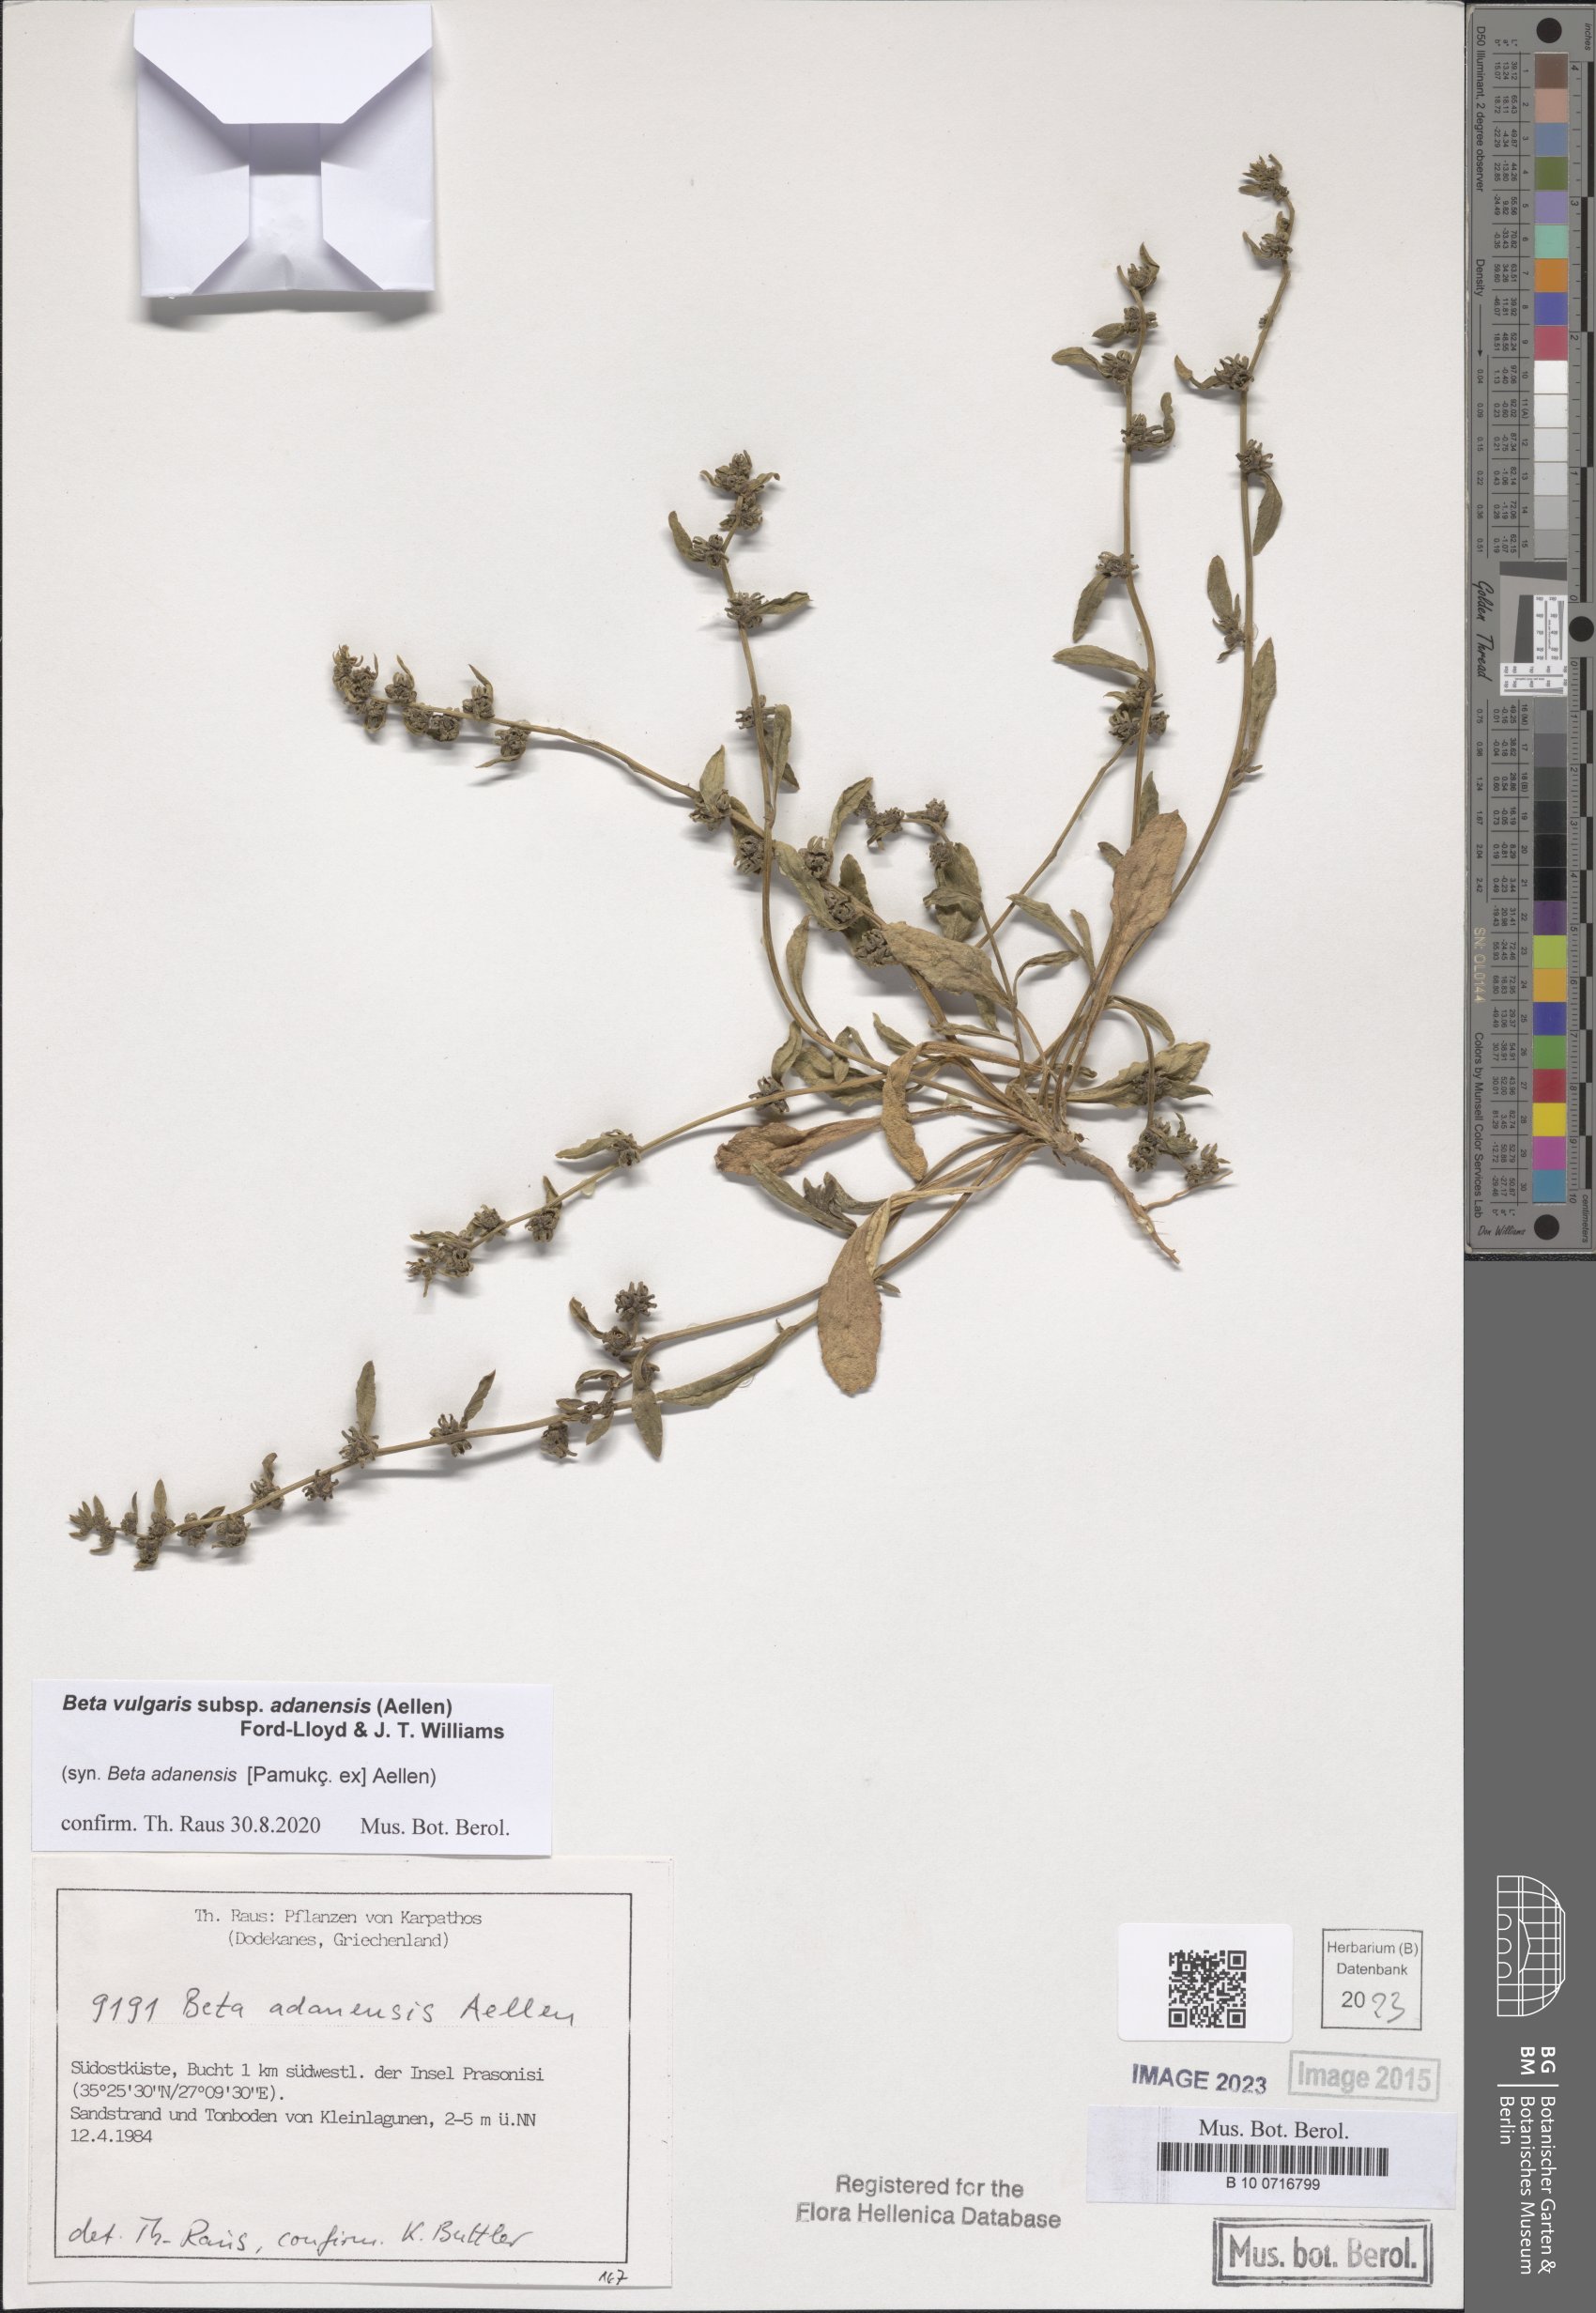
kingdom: Plantae
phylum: Tracheophyta
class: Magnoliopsida
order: Caryophyllales
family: Amaranthaceae
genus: Beta
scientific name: Beta adanensis
